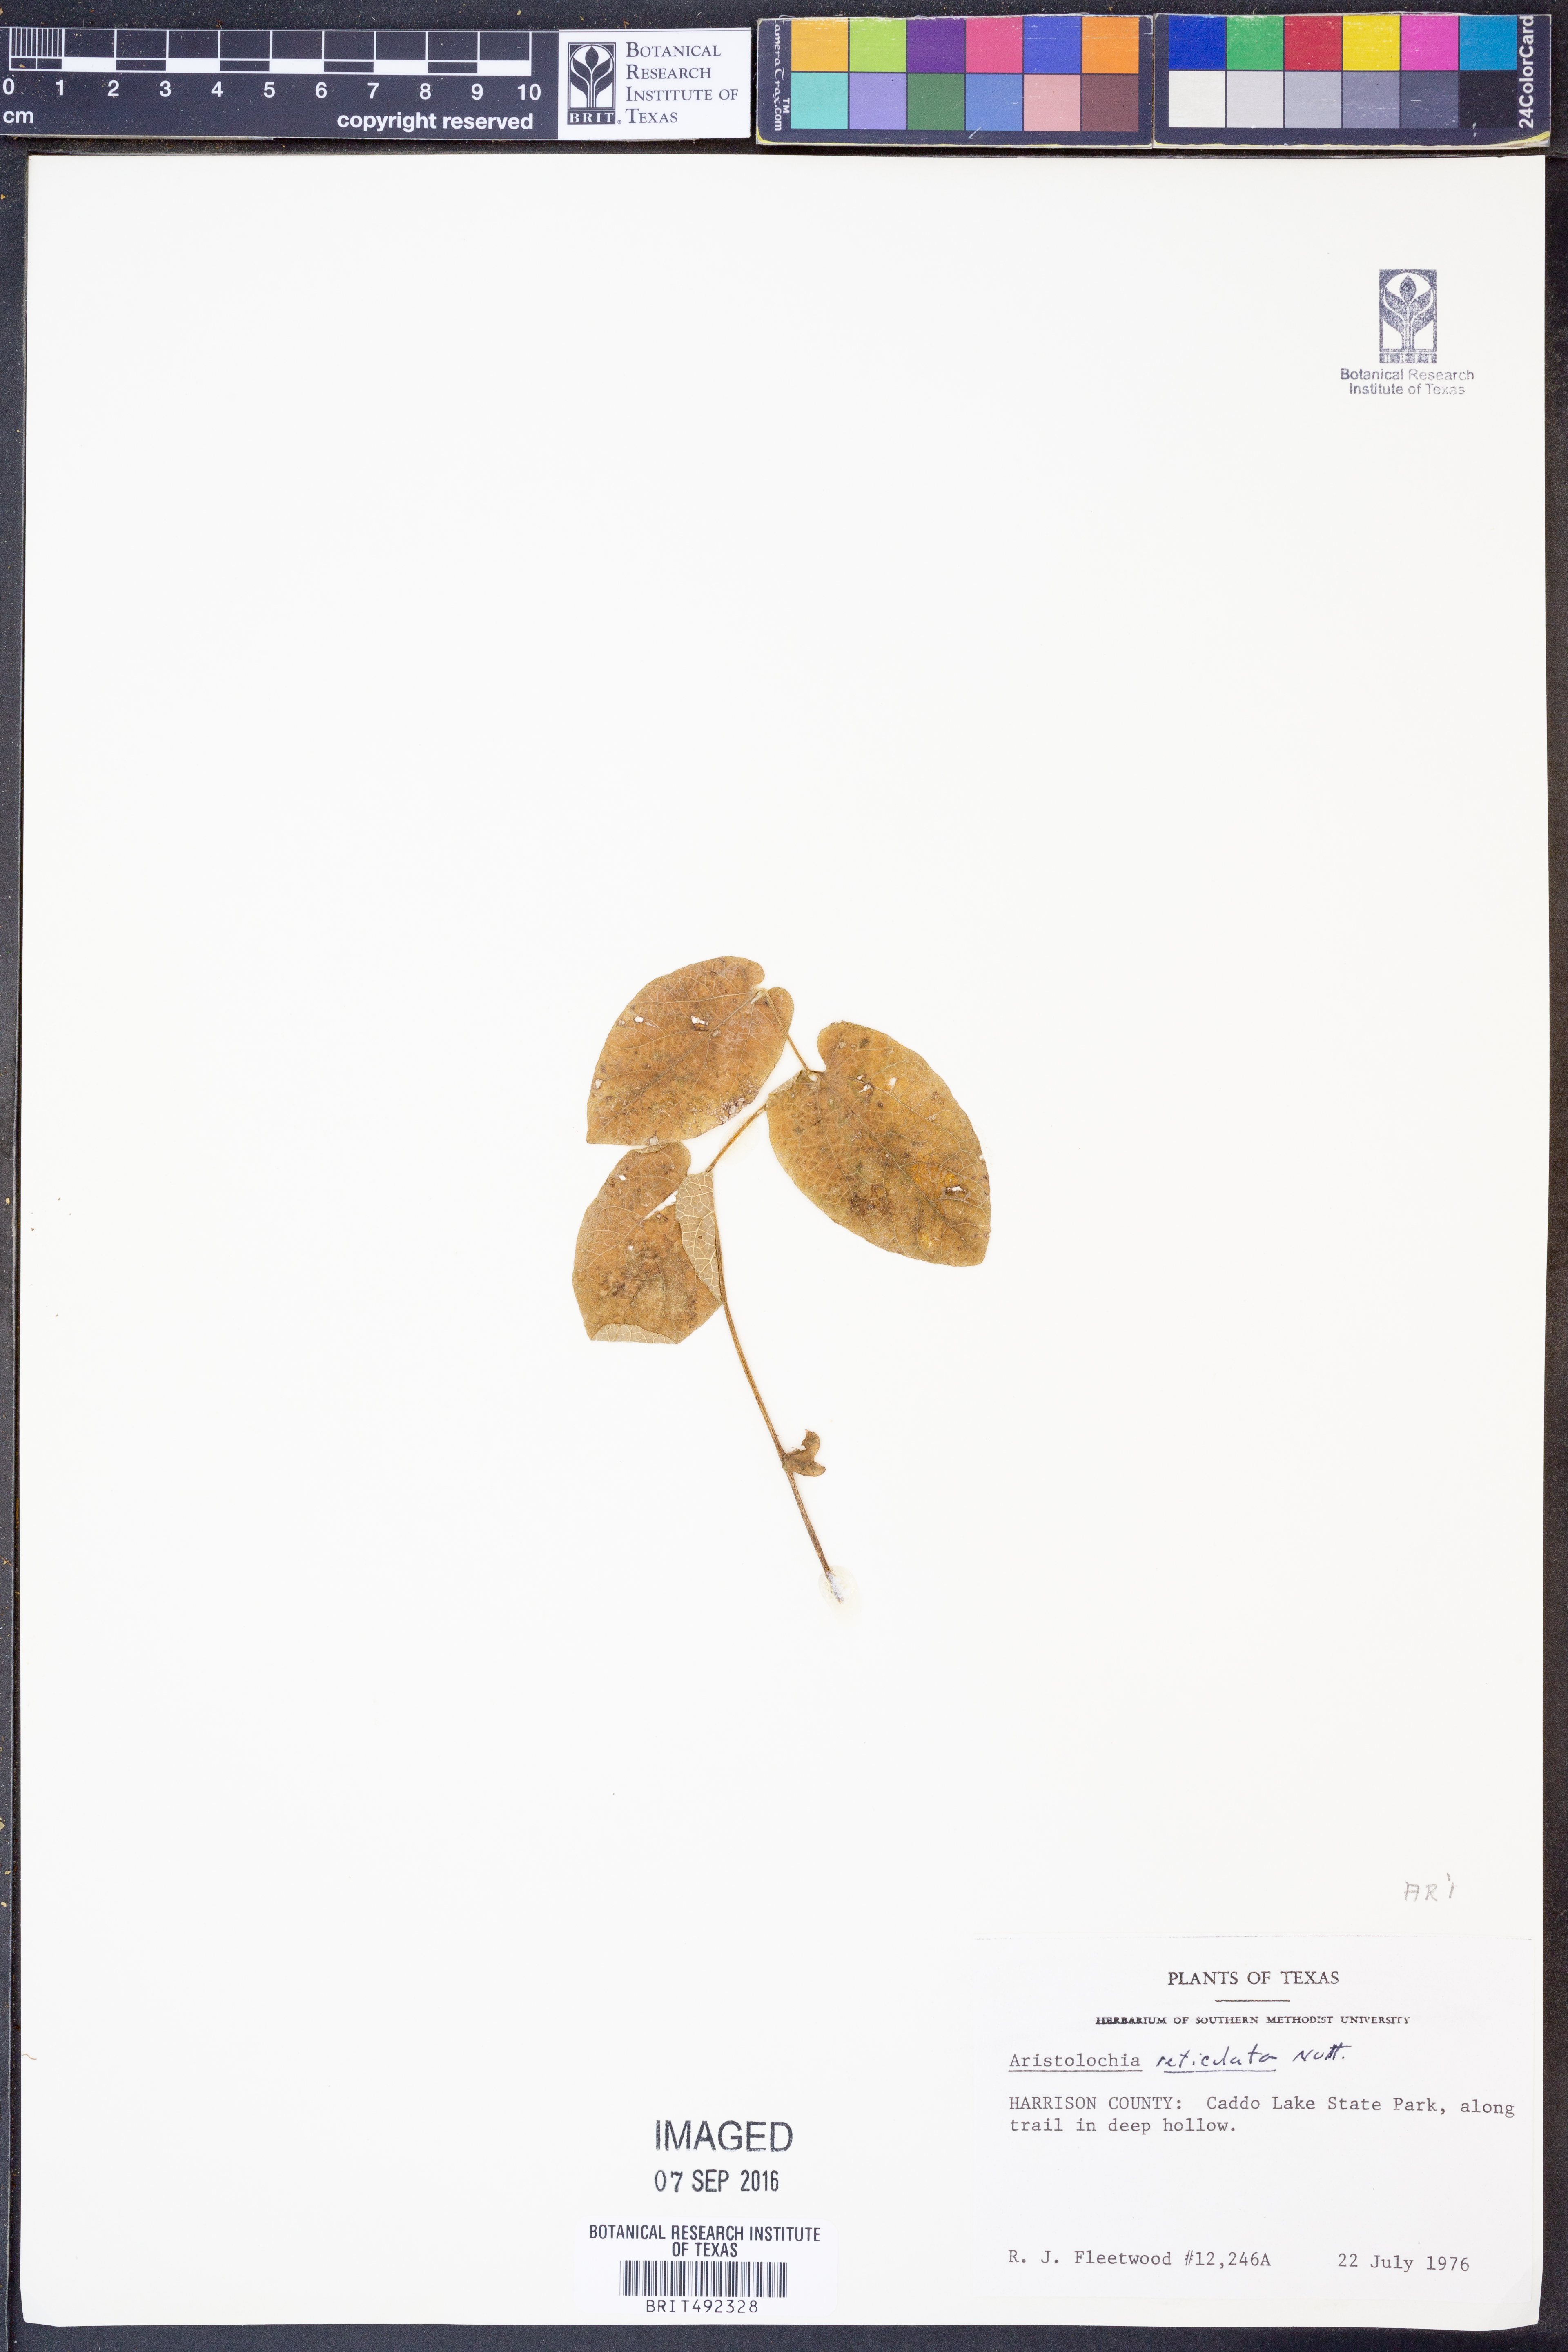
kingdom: Plantae
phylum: Tracheophyta
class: Magnoliopsida
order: Piperales
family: Aristolochiaceae
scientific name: Aristolochiaceae
